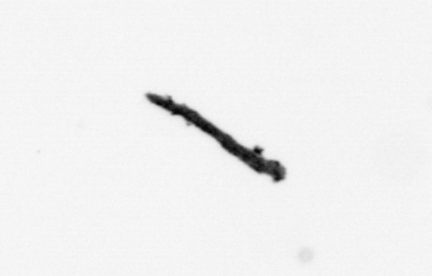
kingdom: Bacteria
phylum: Cyanobacteria
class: Cyanobacteriia
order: Cyanobacteriales
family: Microcoleaceae
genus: Trichodesmium
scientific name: Trichodesmium
